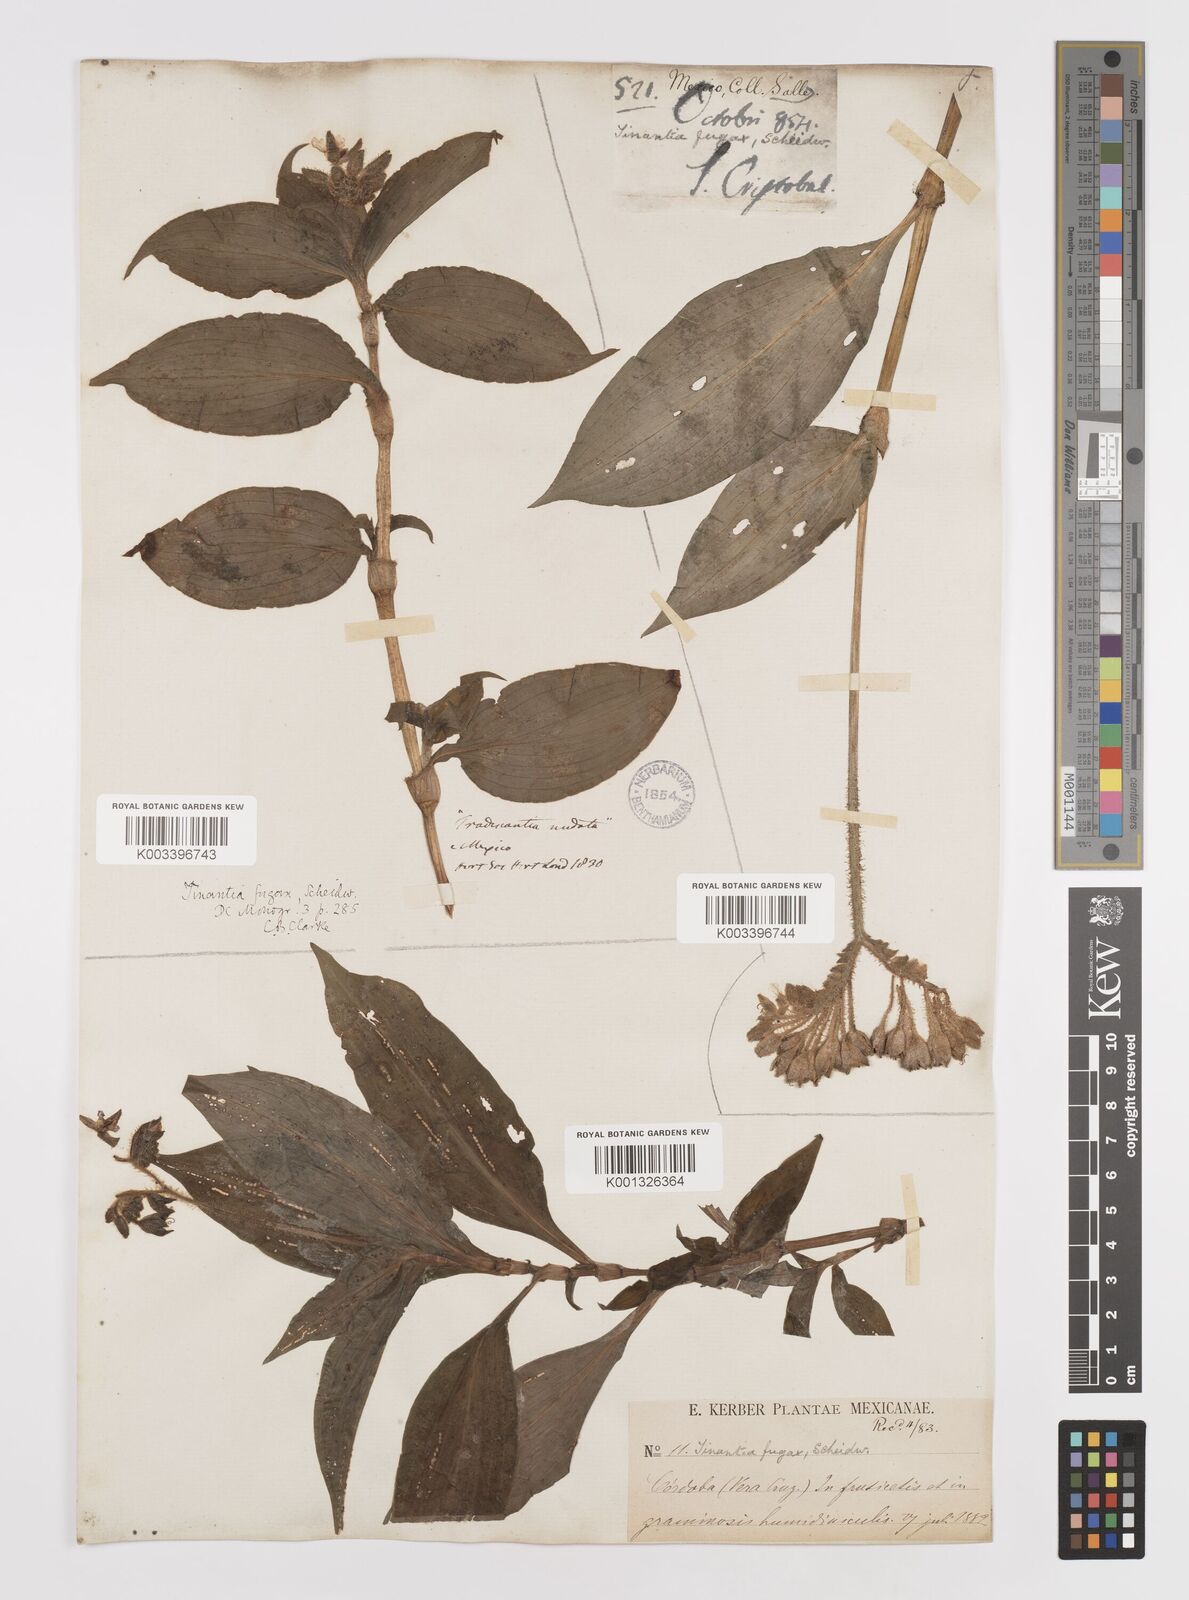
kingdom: Plantae
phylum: Tracheophyta
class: Liliopsida
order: Commelinales
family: Commelinaceae
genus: Tinantia
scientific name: Tinantia erecta
